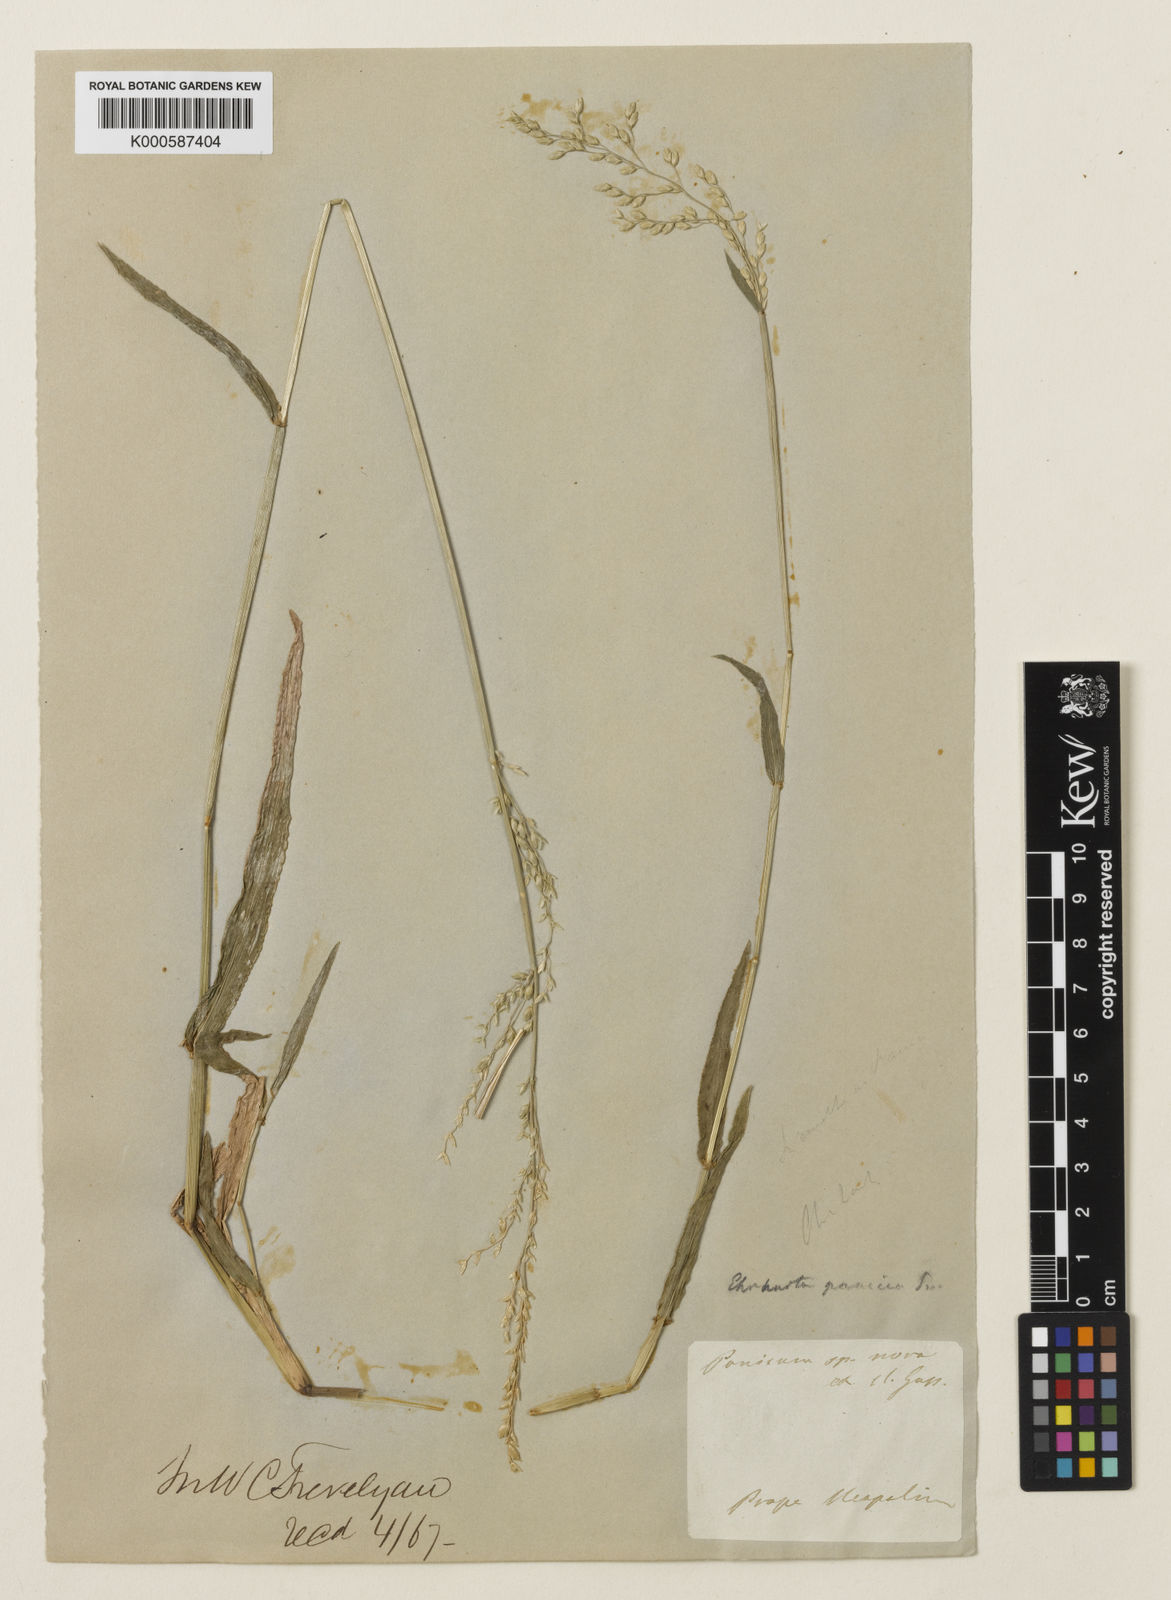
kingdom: Plantae
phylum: Tracheophyta
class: Liliopsida
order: Poales
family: Poaceae
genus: Ehrharta
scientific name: Ehrharta erecta
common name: Panic veldtgrass
